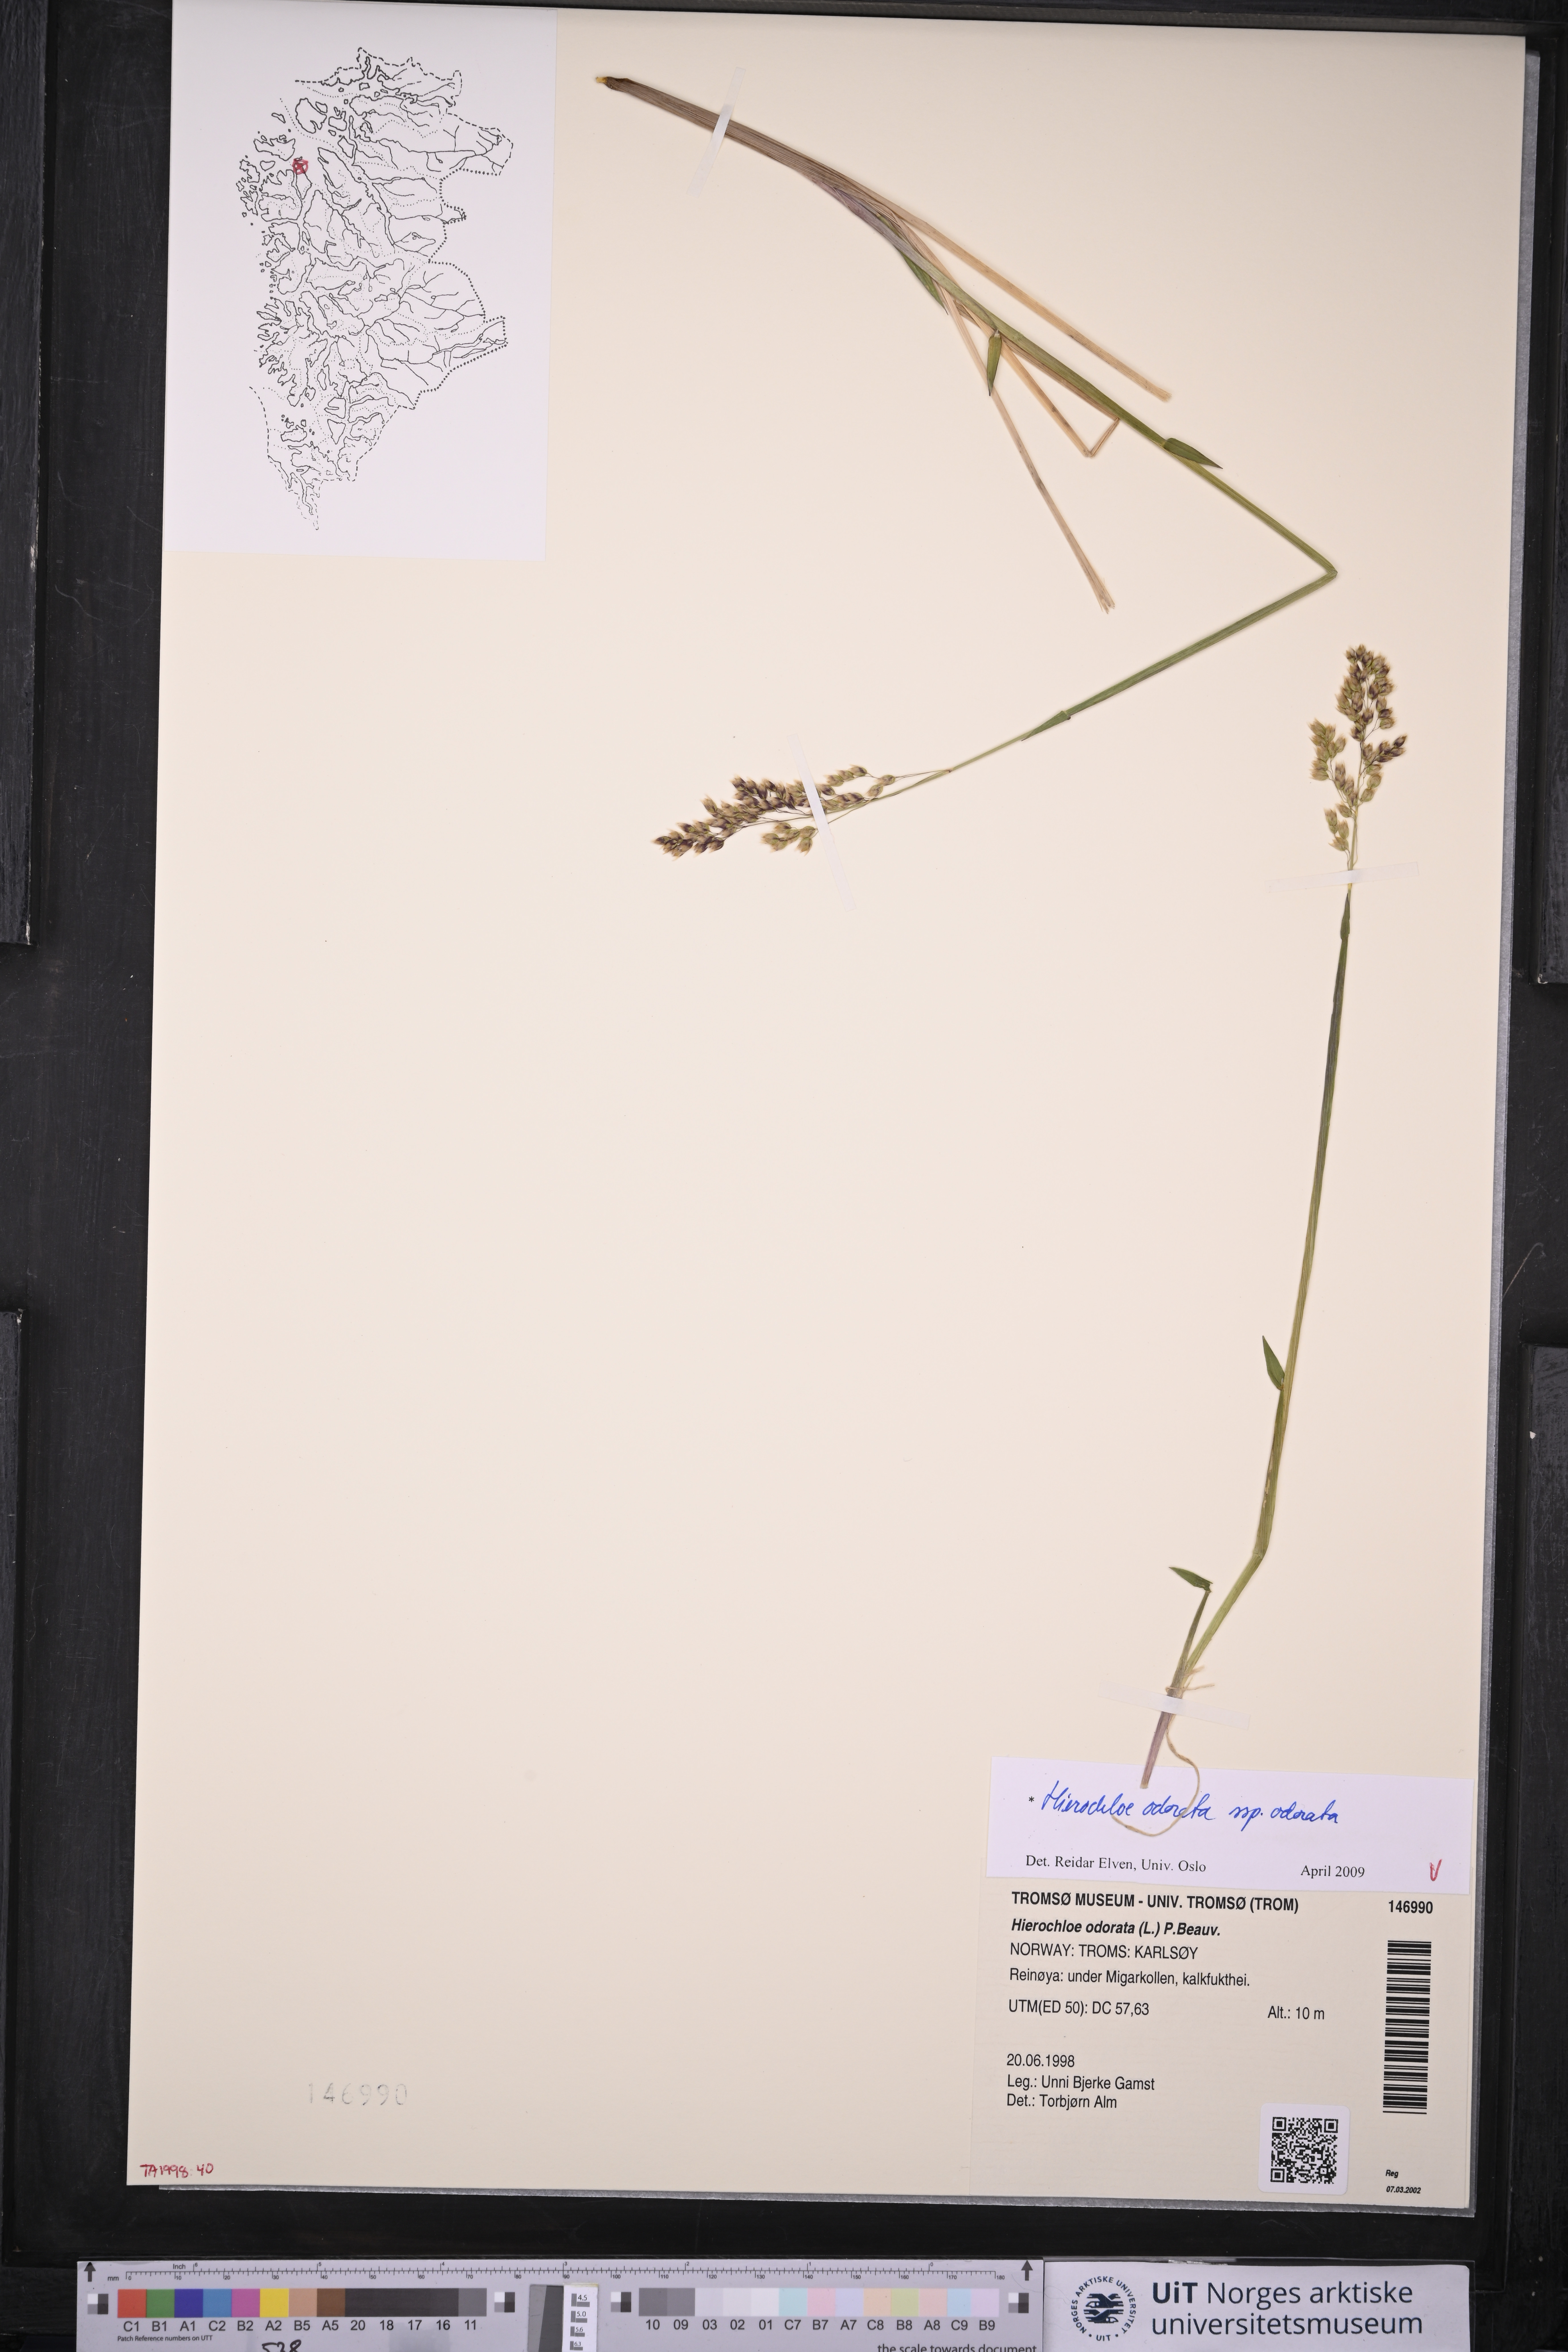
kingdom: Plantae
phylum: Tracheophyta
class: Liliopsida
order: Poales
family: Poaceae
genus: Anthoxanthum
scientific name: Anthoxanthum nitens
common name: Holy grass
